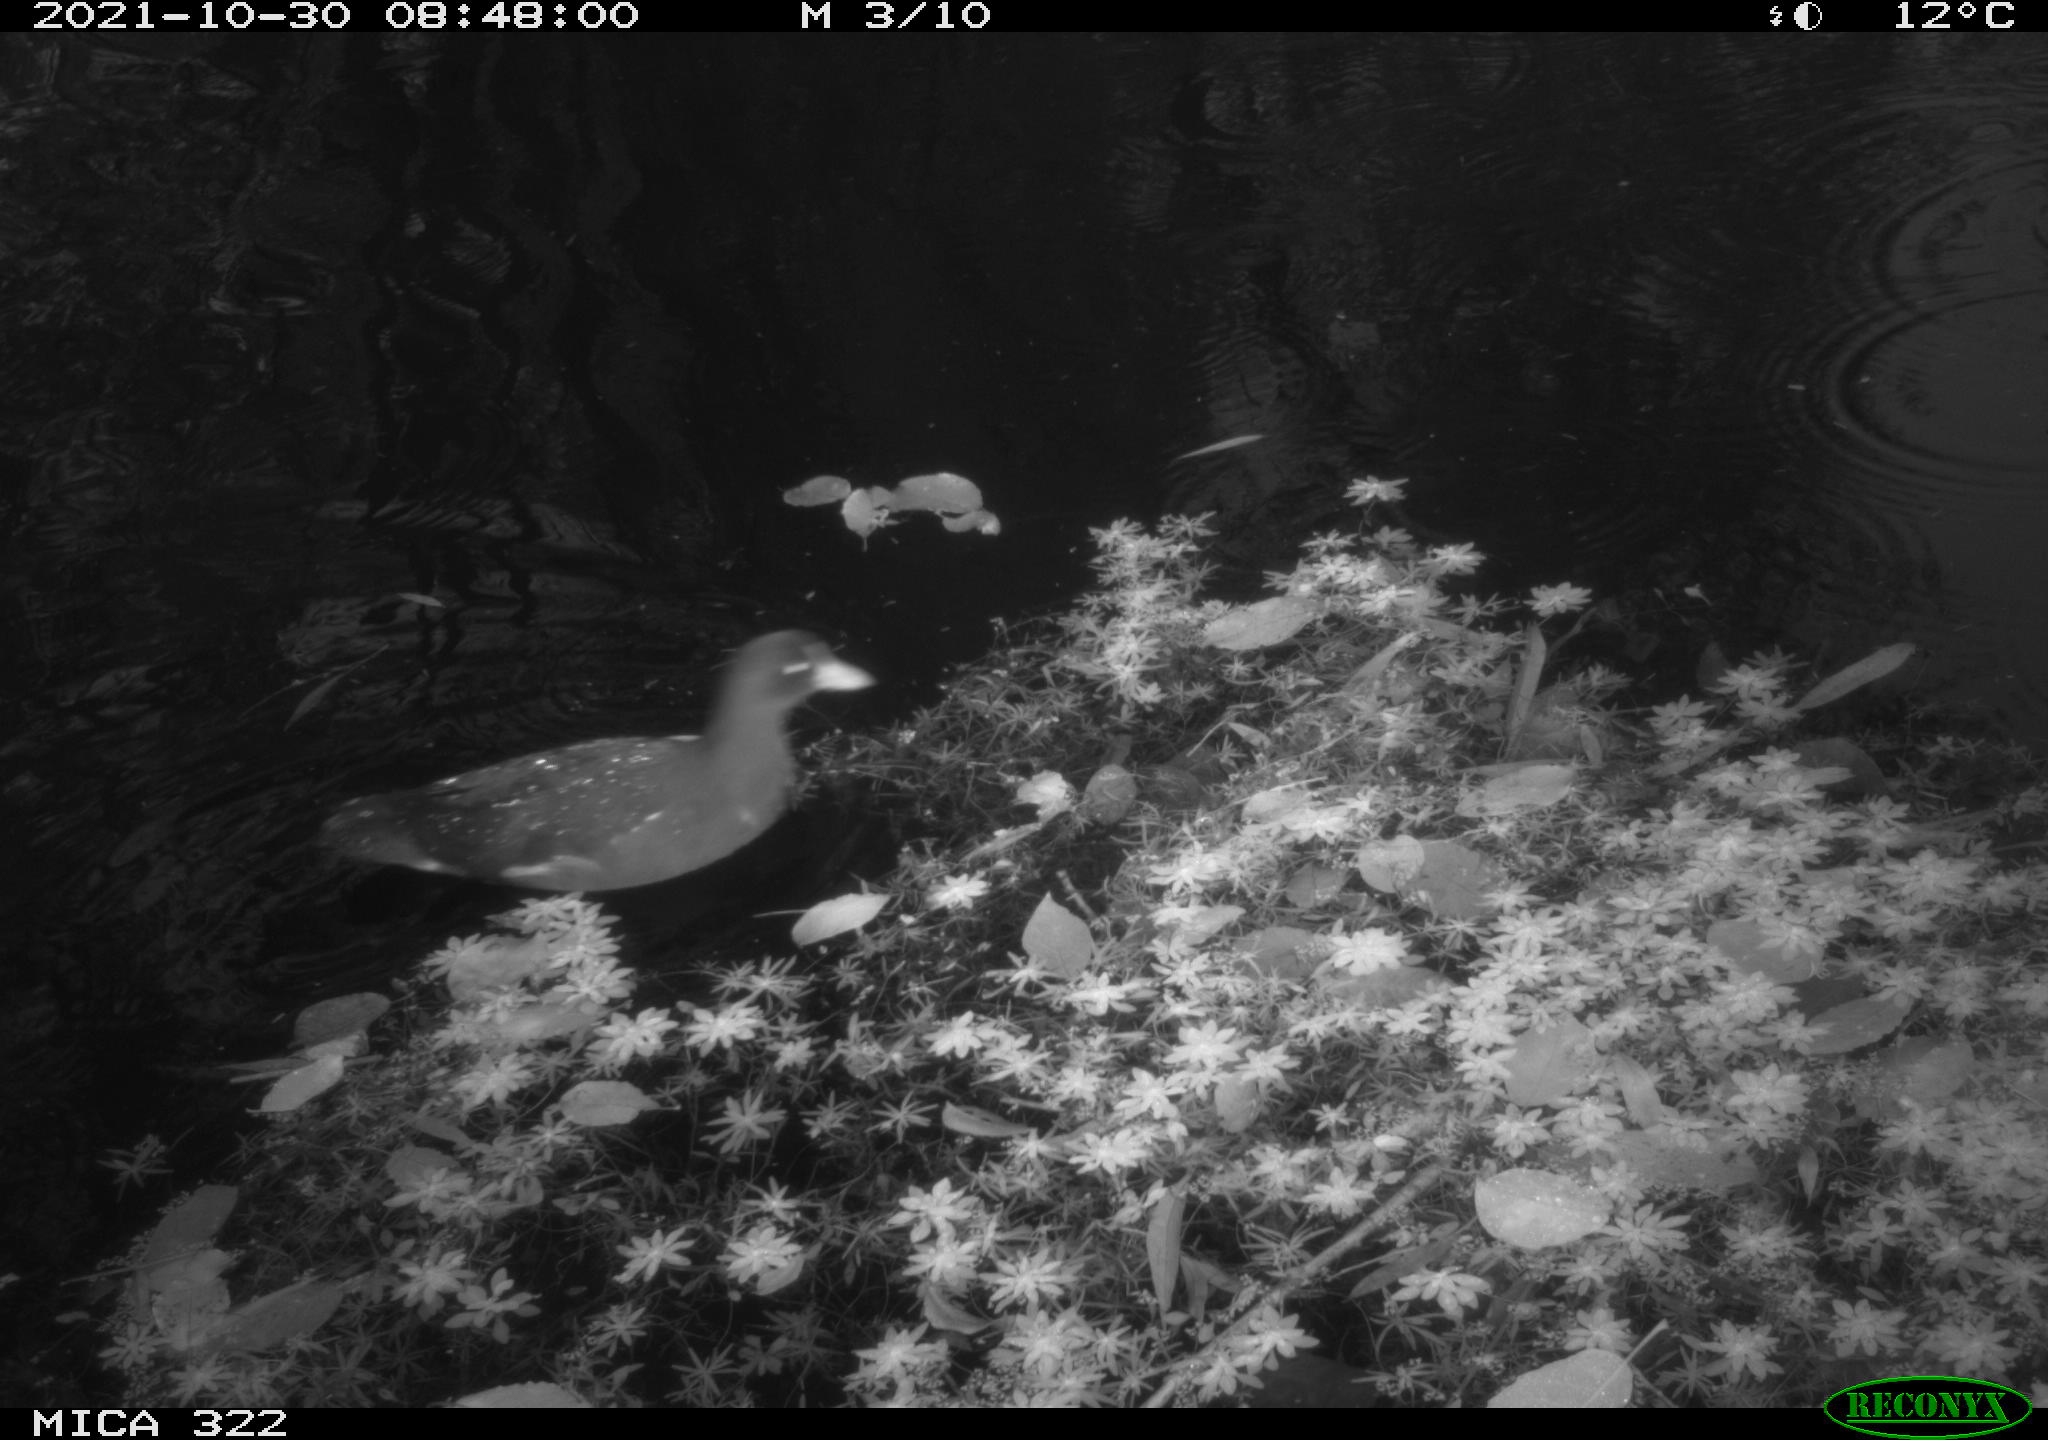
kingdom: Animalia
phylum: Chordata
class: Aves
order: Gruiformes
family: Rallidae
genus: Gallinula
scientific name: Gallinula chloropus
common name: Common moorhen
